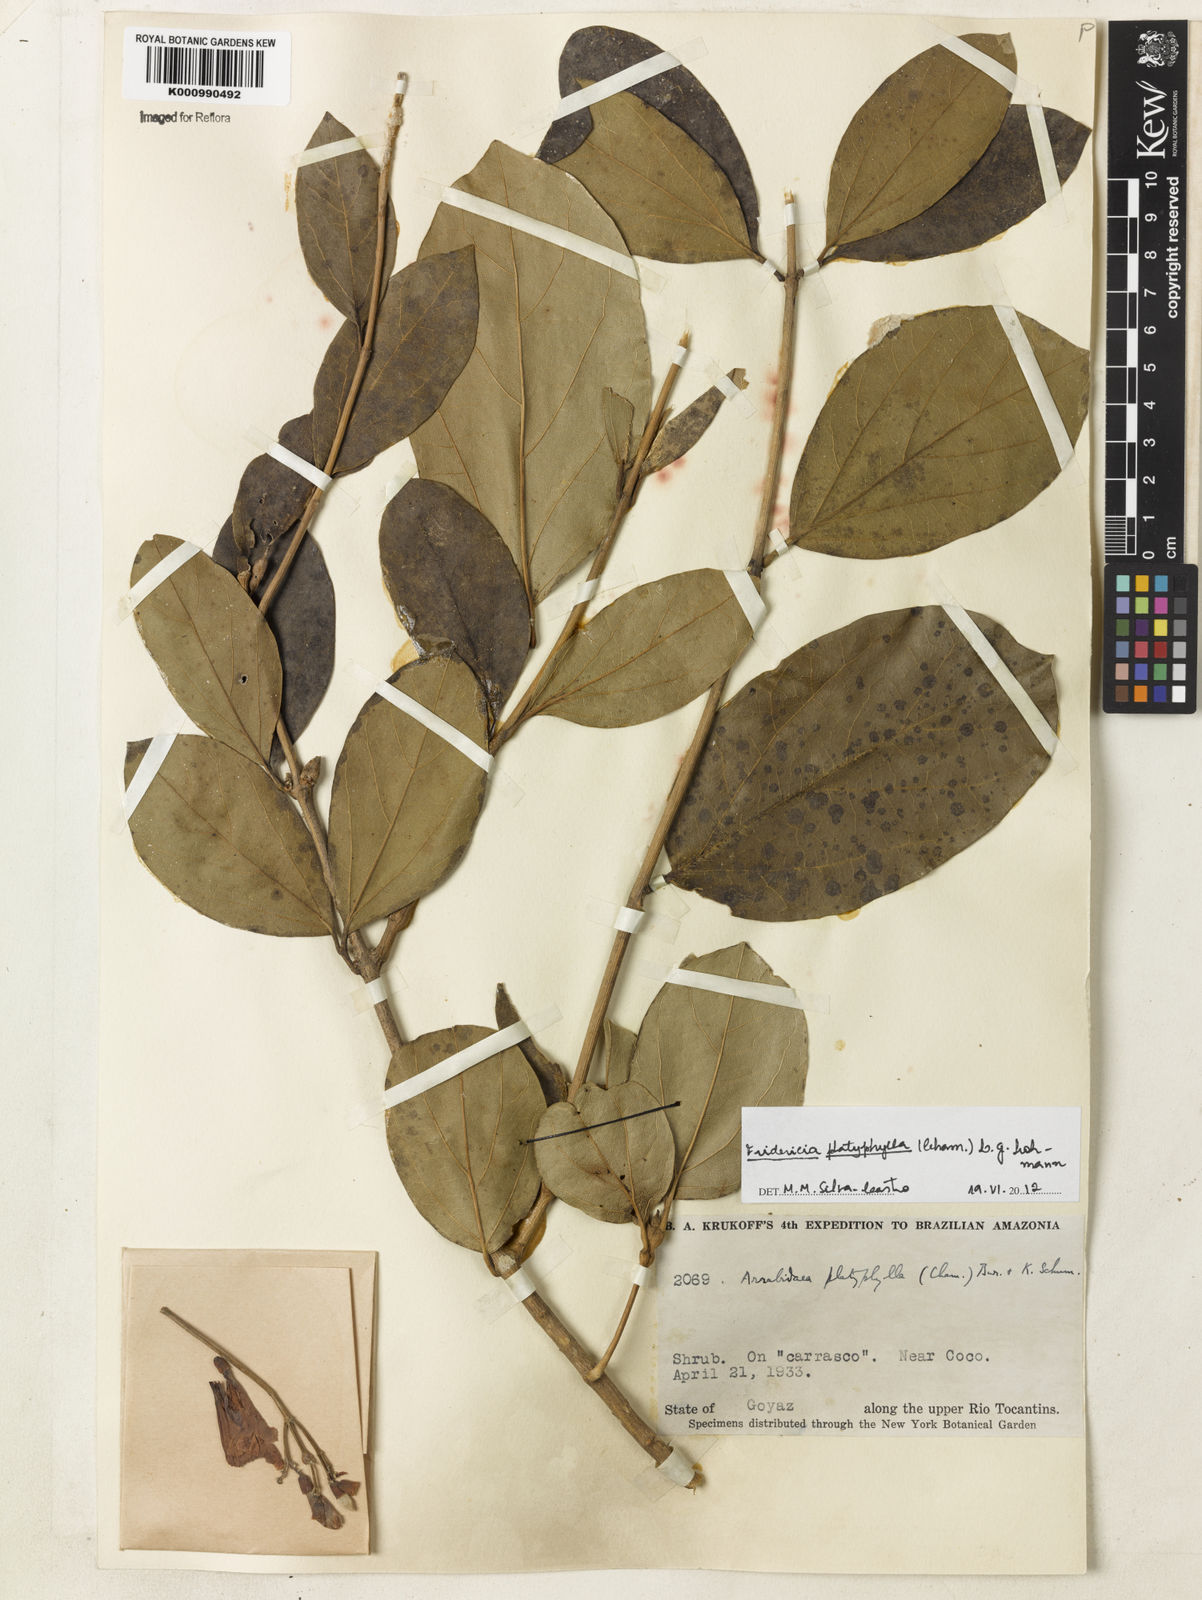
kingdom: Plantae
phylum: Tracheophyta
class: Magnoliopsida
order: Lamiales
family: Bignoniaceae
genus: Fridericia
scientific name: Fridericia platyphylla
